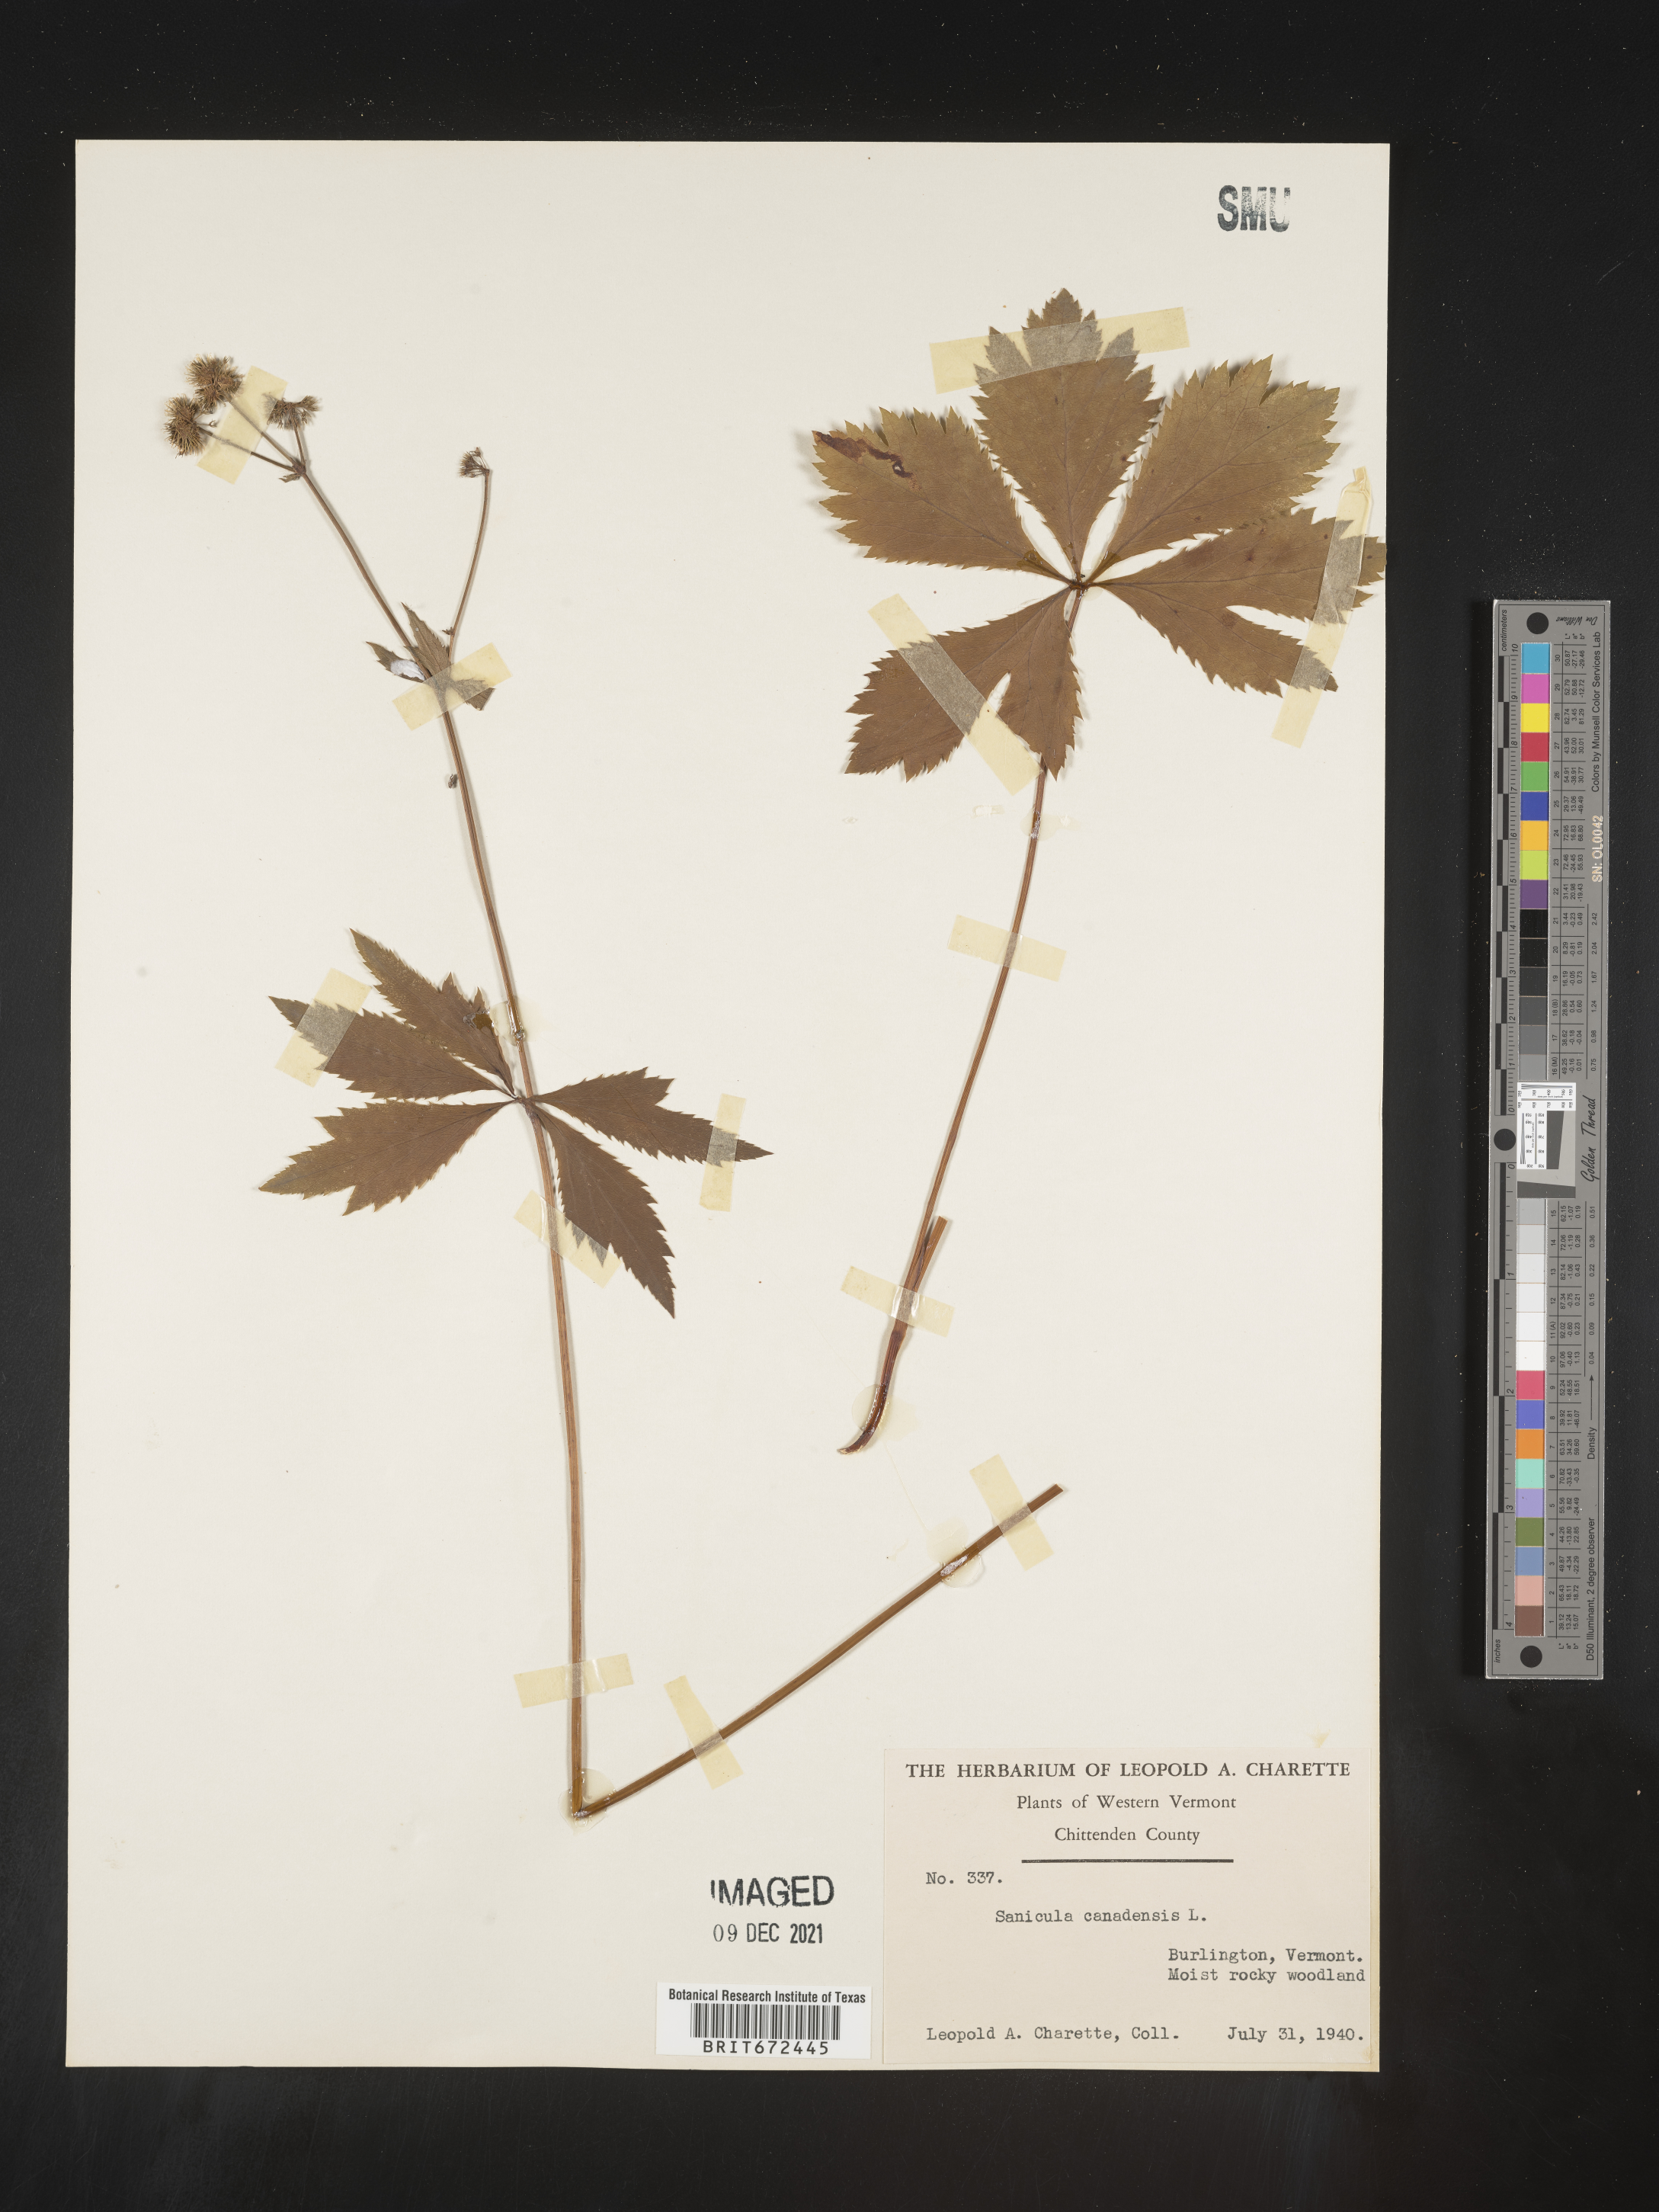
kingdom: Plantae
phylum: Tracheophyta
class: Magnoliopsida
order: Apiales
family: Apiaceae
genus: Sanicula
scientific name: Sanicula canadensis
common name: Canada sanicle
